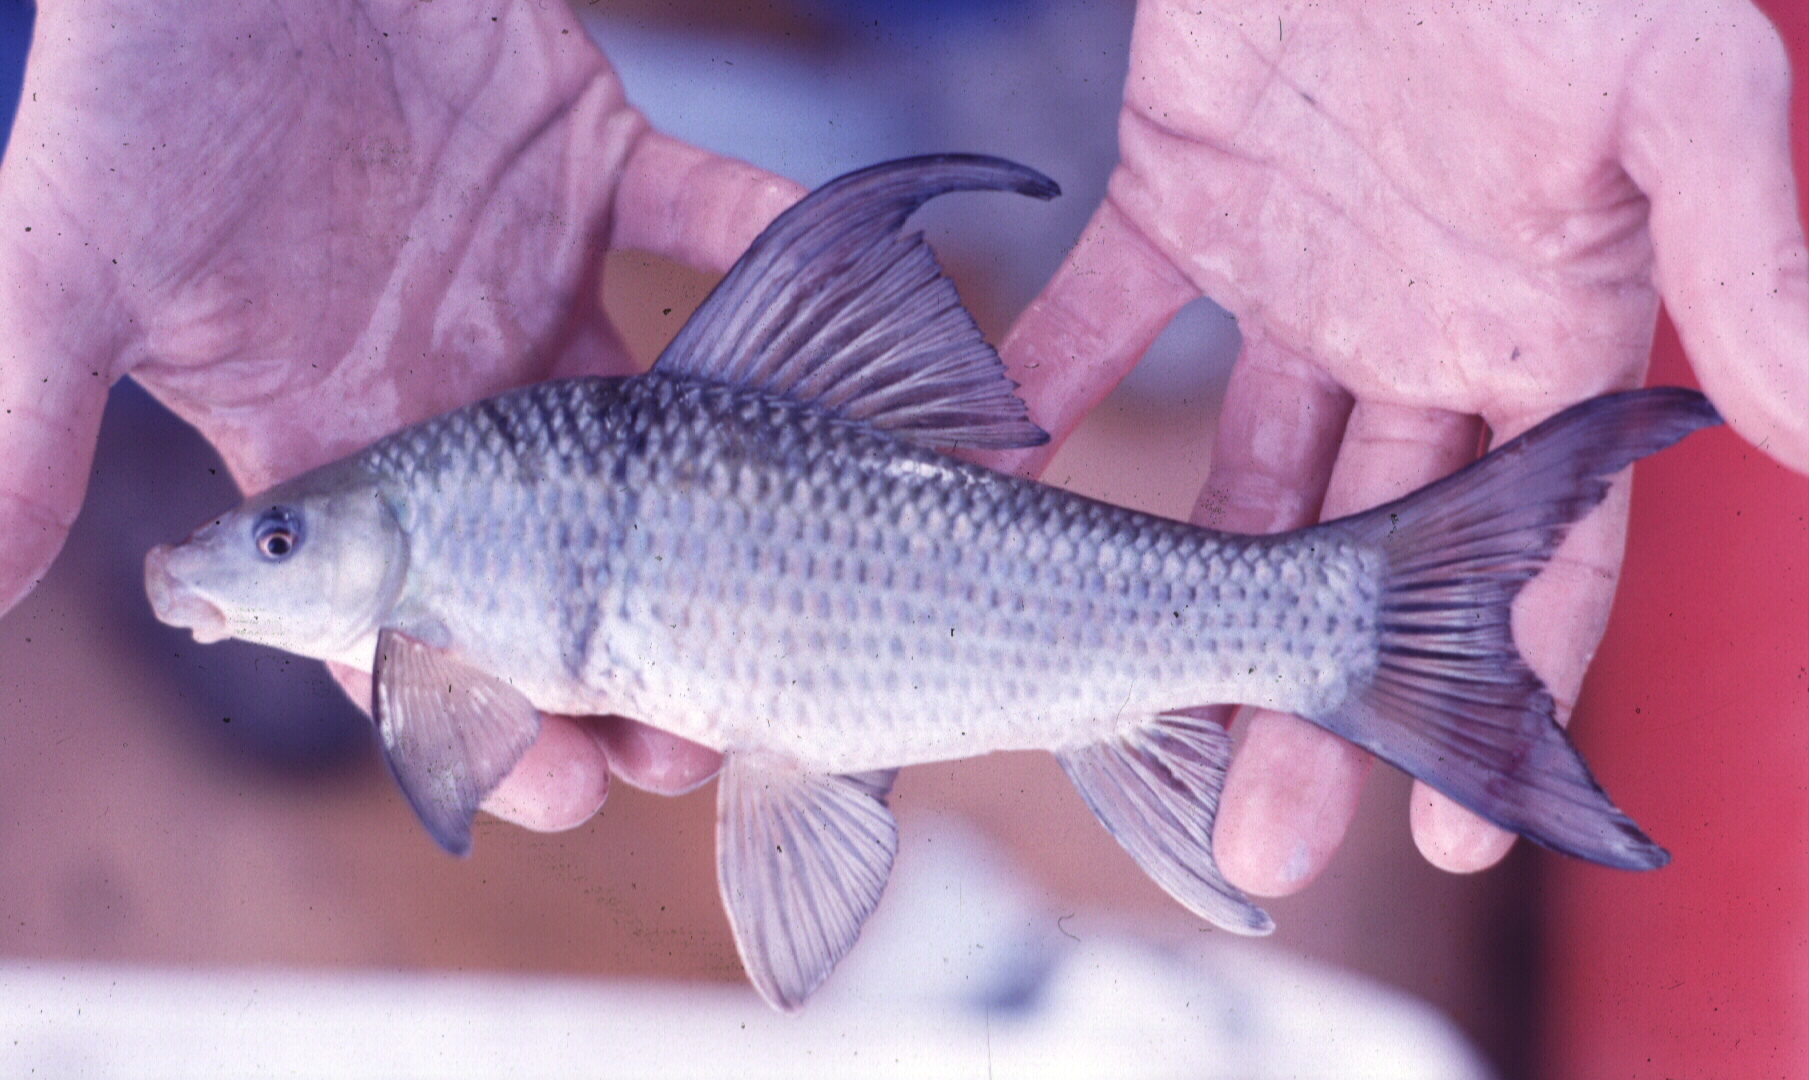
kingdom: Animalia
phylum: Chordata
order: Cypriniformes
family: Cyprinidae
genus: Labeo
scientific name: Labeo lunatus
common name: Upper zambezi labeo
